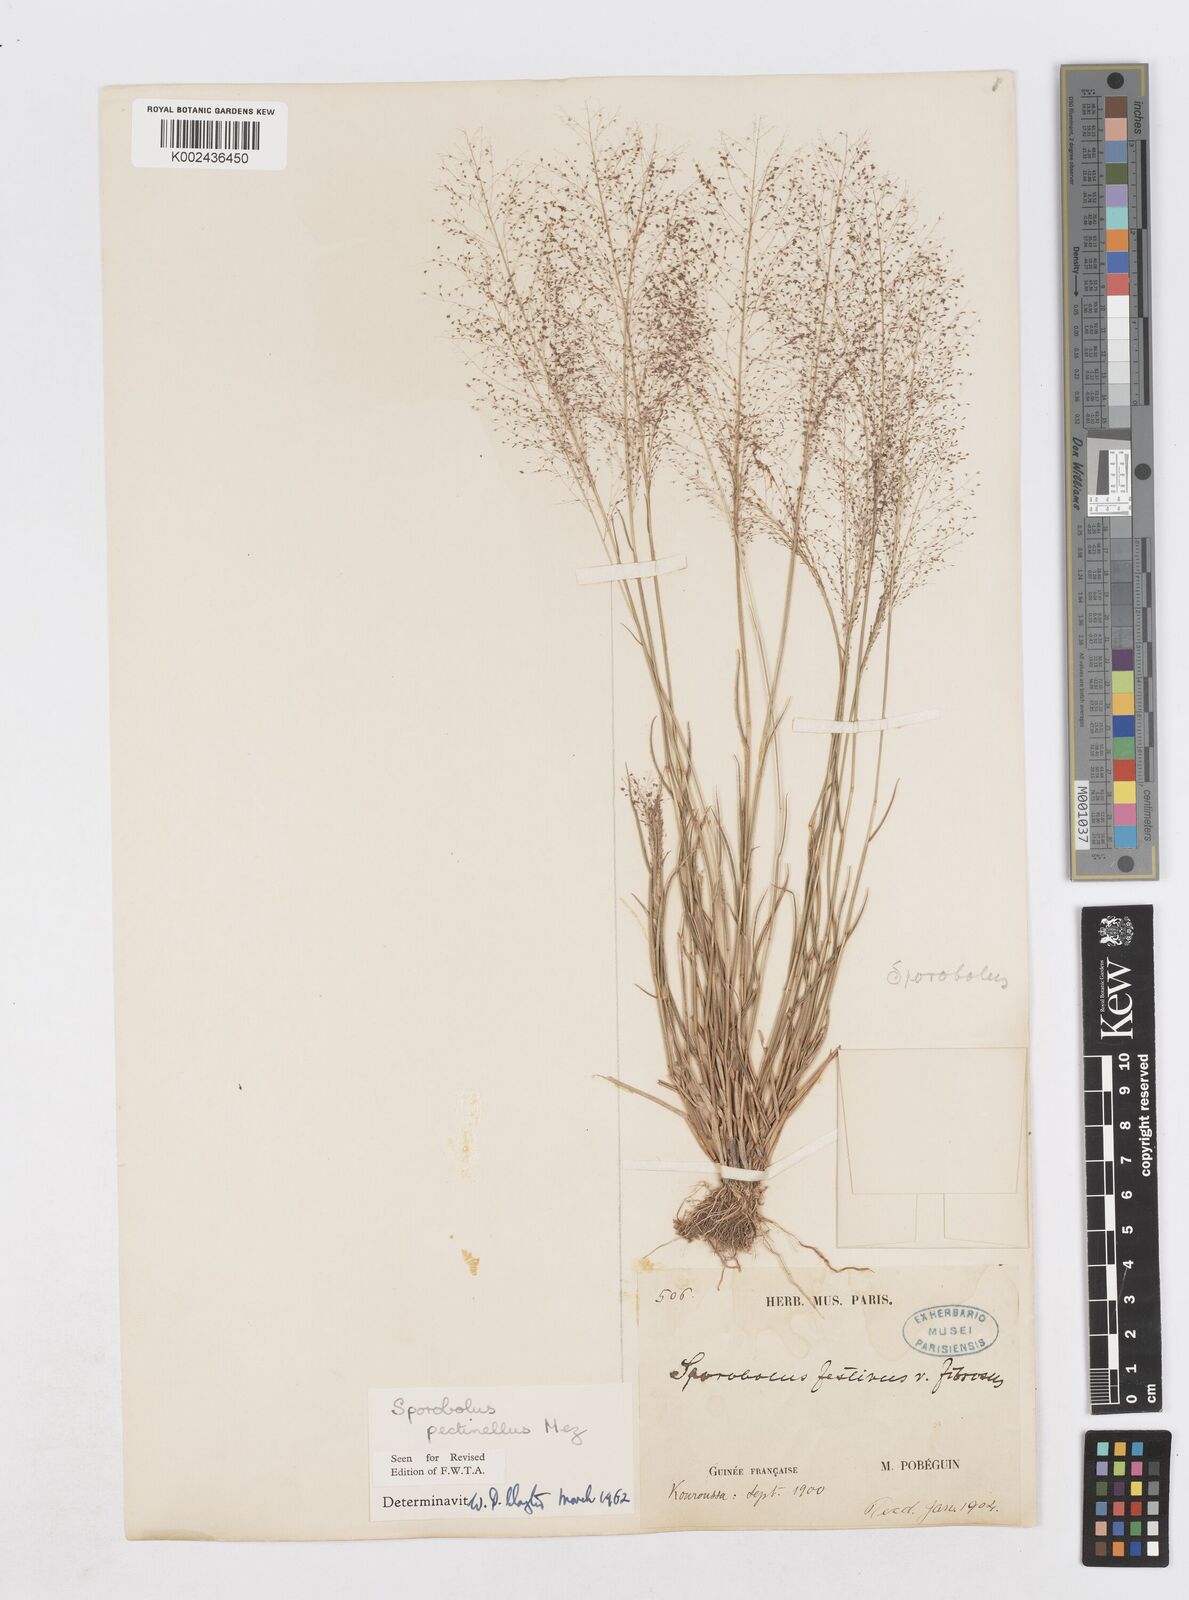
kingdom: Plantae
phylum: Tracheophyta
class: Liliopsida
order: Poales
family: Poaceae
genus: Sporobolus
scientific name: Sporobolus pectinellus
